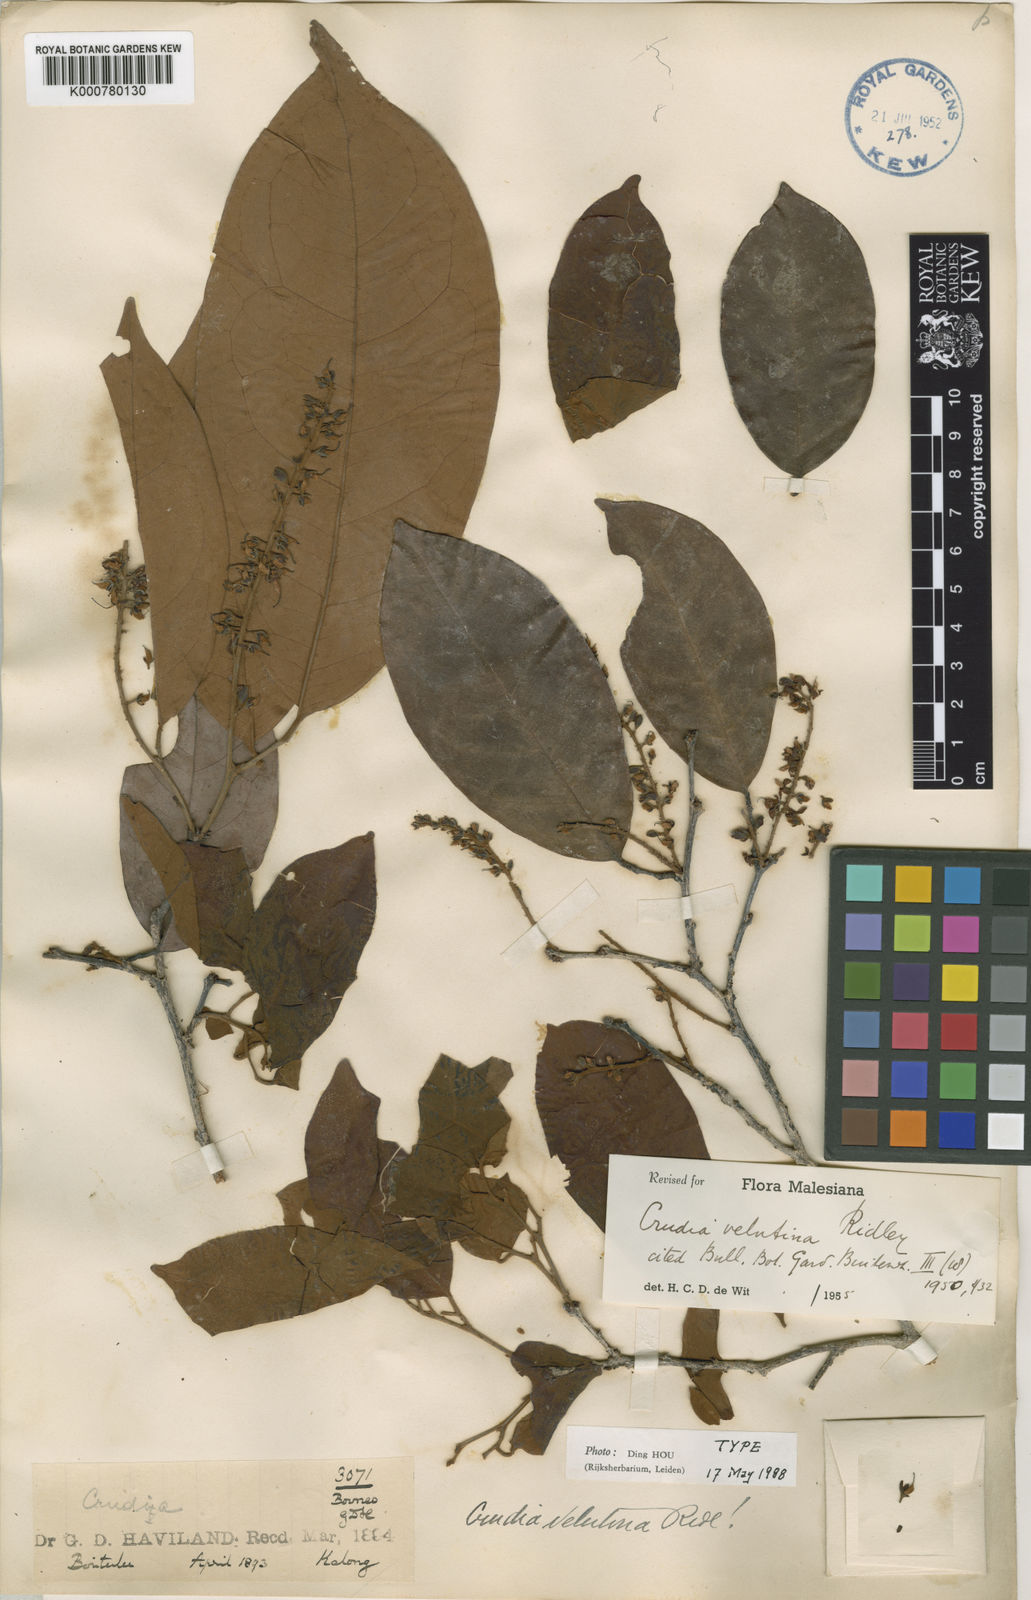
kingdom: Plantae
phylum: Tracheophyta
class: Magnoliopsida
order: Fabales
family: Fabaceae
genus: Crudia
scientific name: Crudia gracilis
